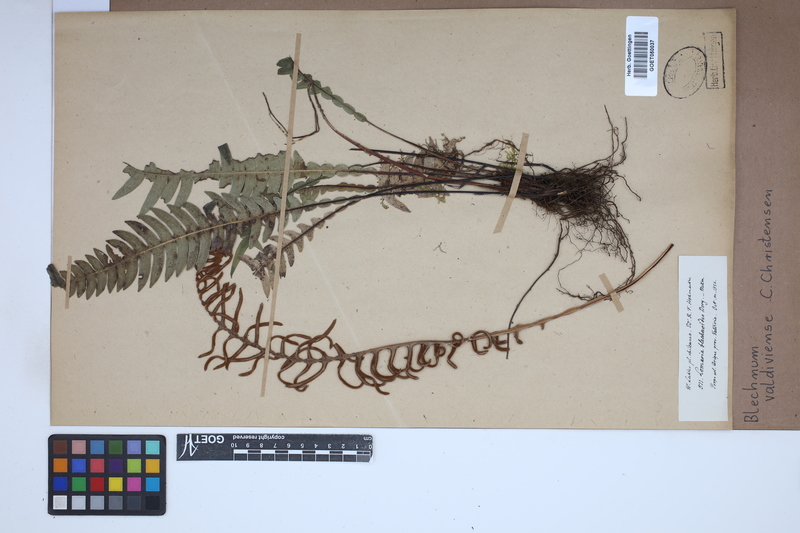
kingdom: Plantae
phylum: Tracheophyta
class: Polypodiopsida
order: Polypodiales
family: Blechnaceae
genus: Austroblechnum
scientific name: Austroblechnum leyboldtianum
